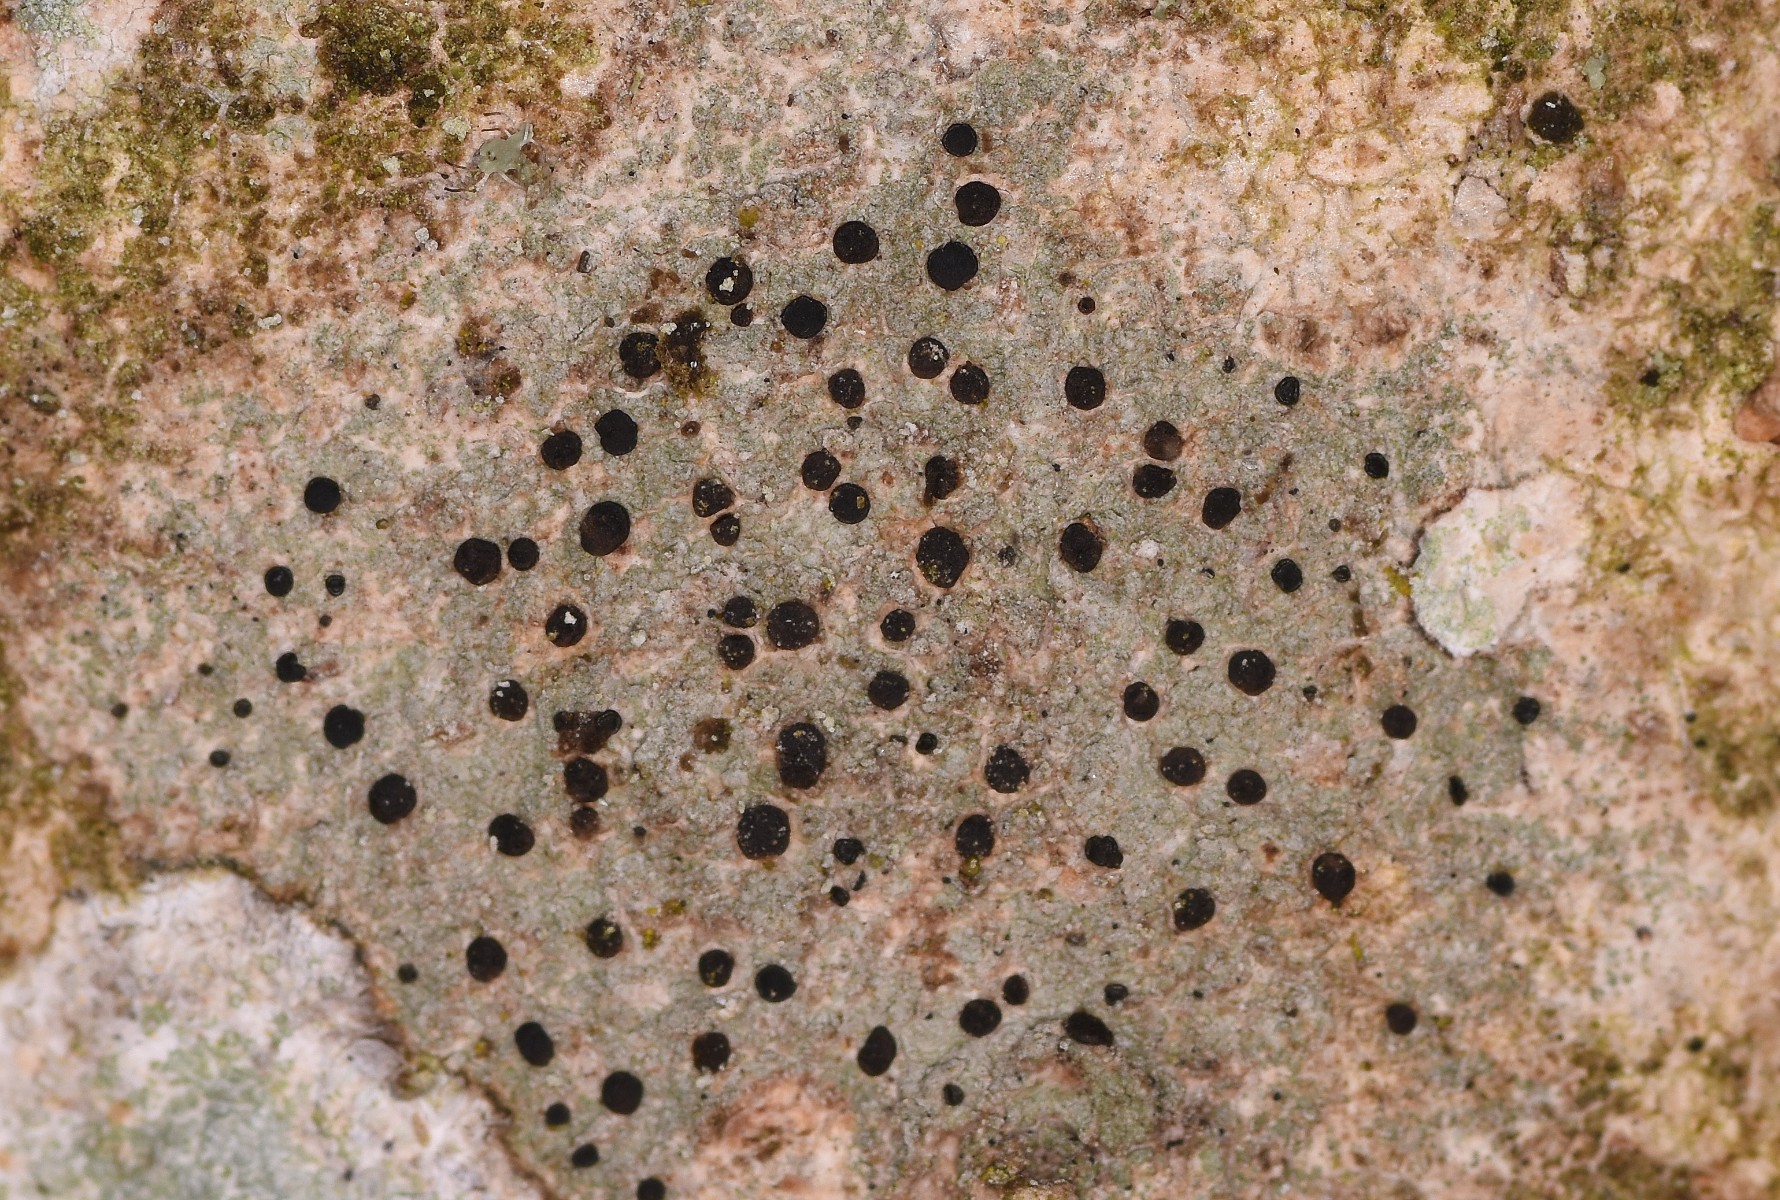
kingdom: Fungi
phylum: Ascomycota
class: Lecanoromycetes
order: Lecanorales
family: Lecanoraceae
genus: Lecidella
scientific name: Lecidella elaeochroma
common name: grågrøn skivelav
